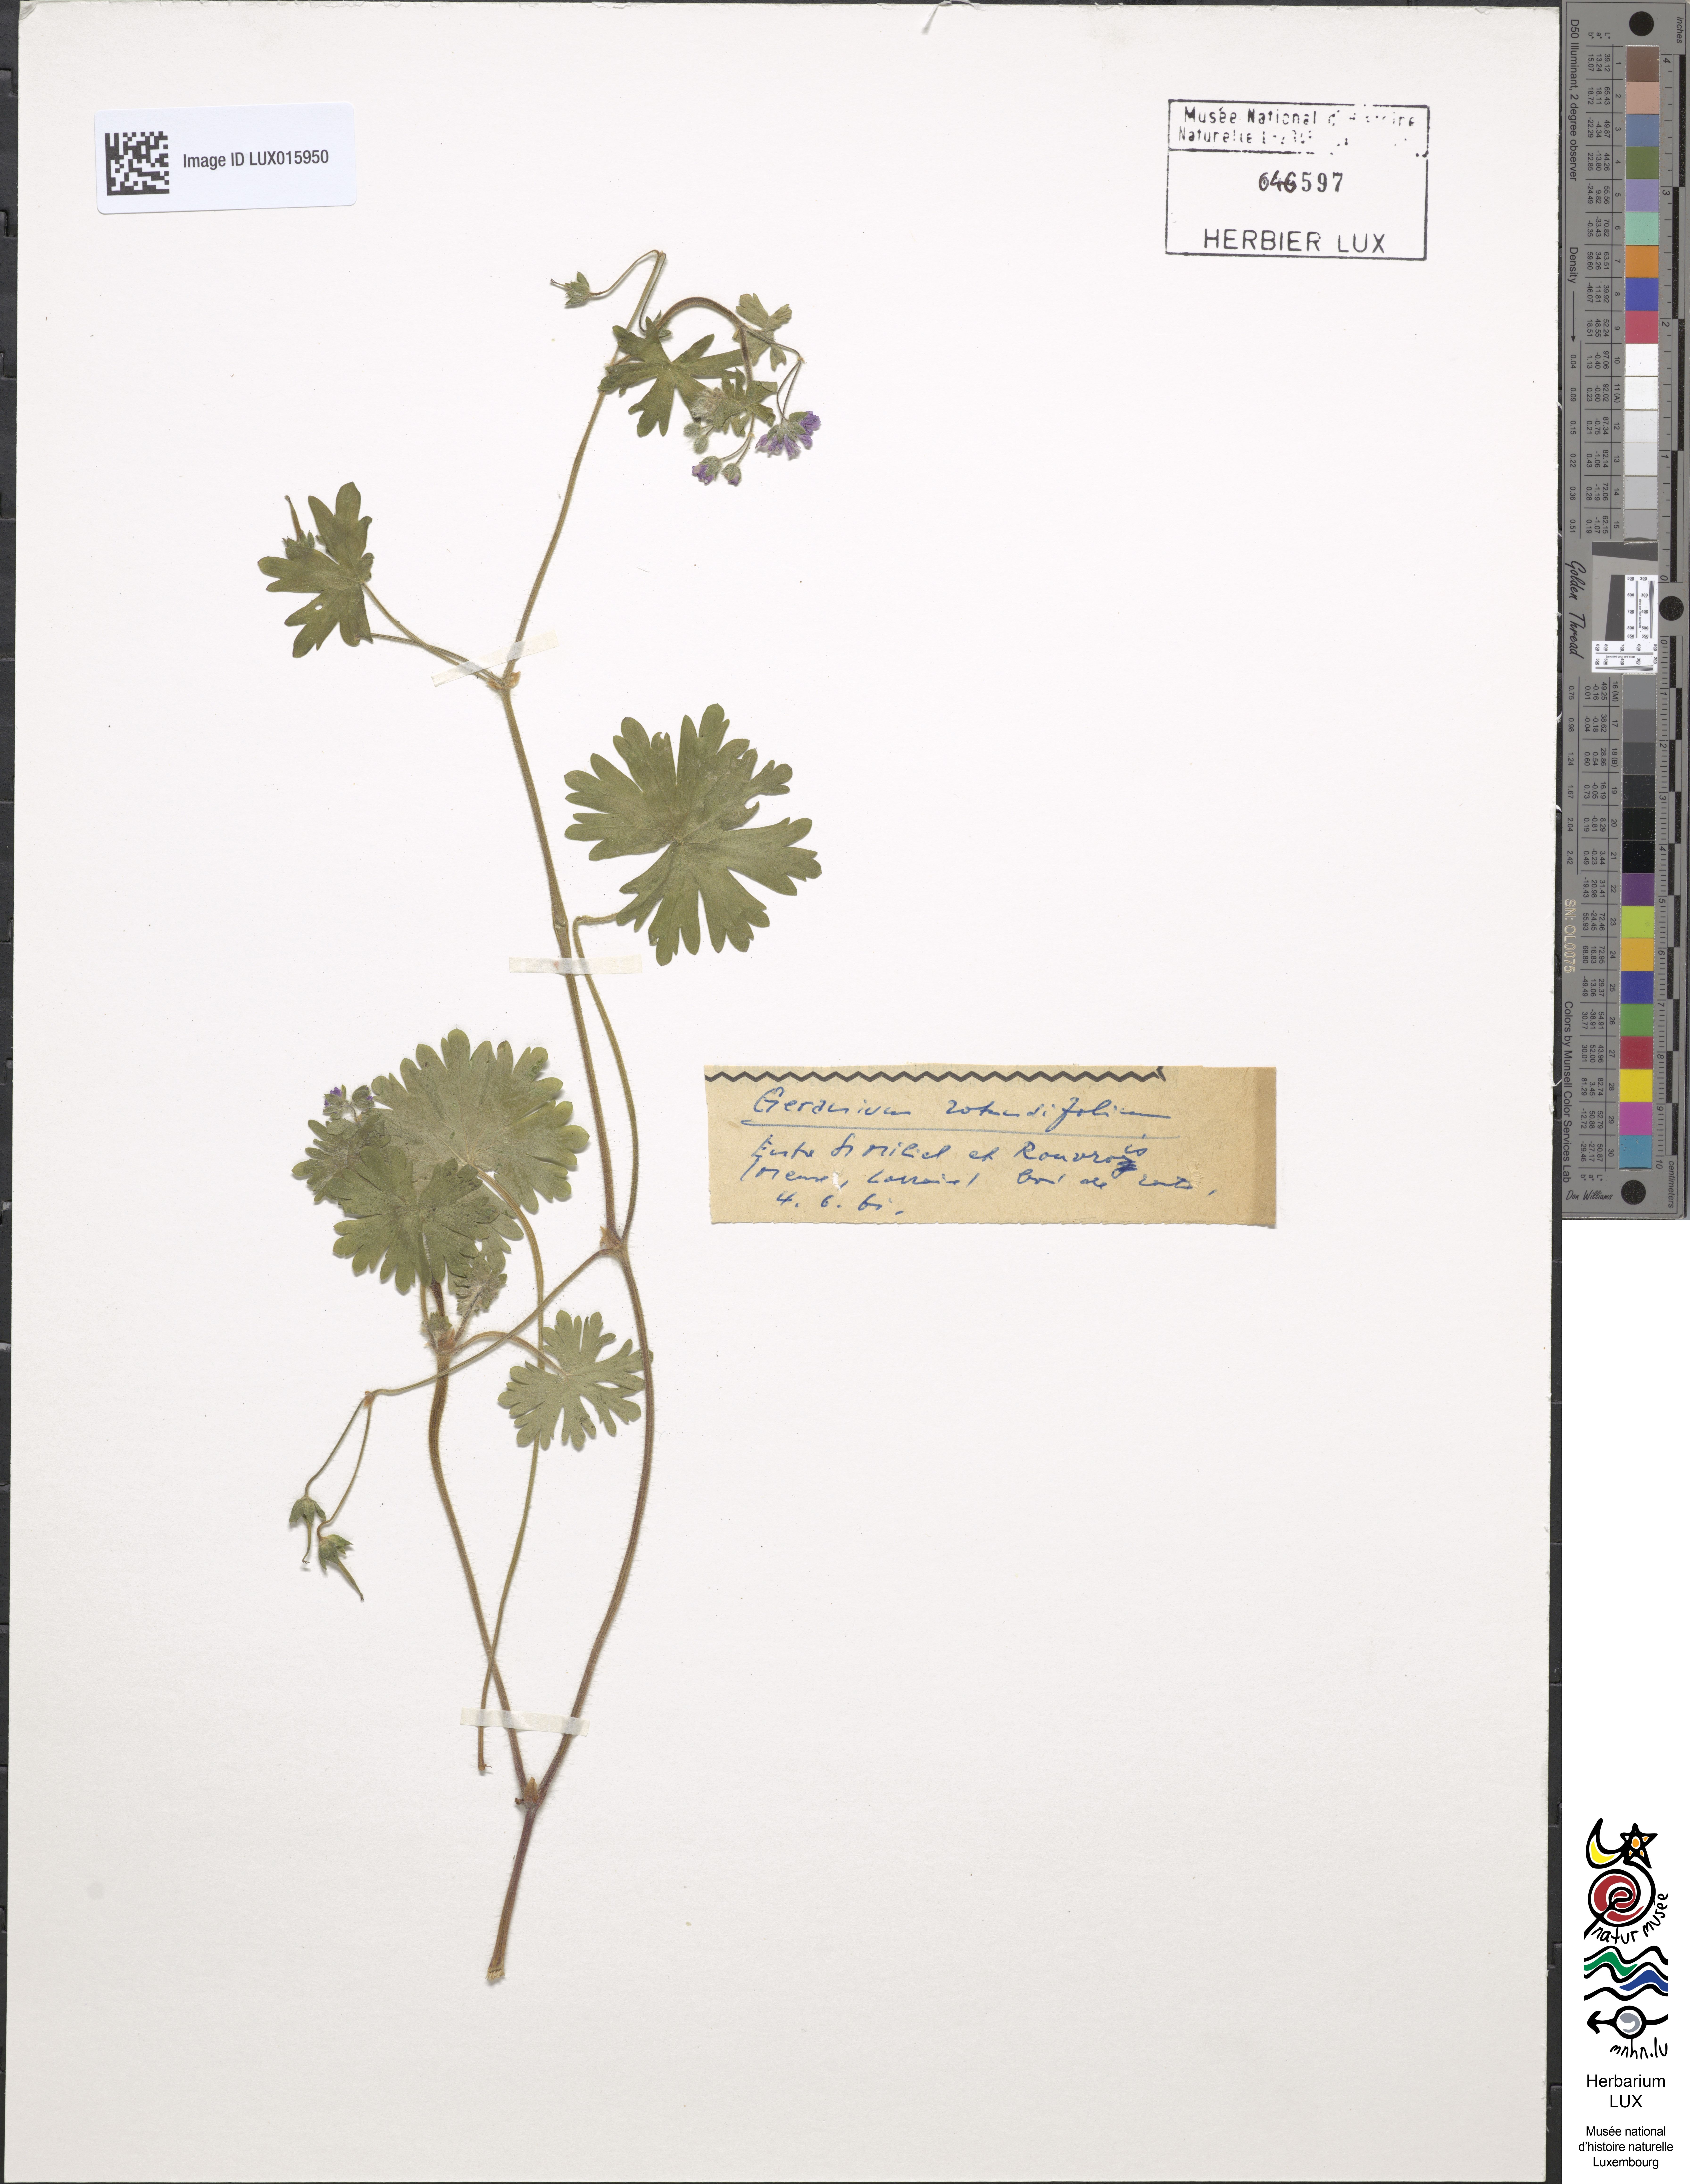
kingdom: Plantae
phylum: Tracheophyta
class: Magnoliopsida
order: Geraniales
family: Geraniaceae
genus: Geranium
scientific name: Geranium rotundifolium
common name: Round-leaved crane's-bill
